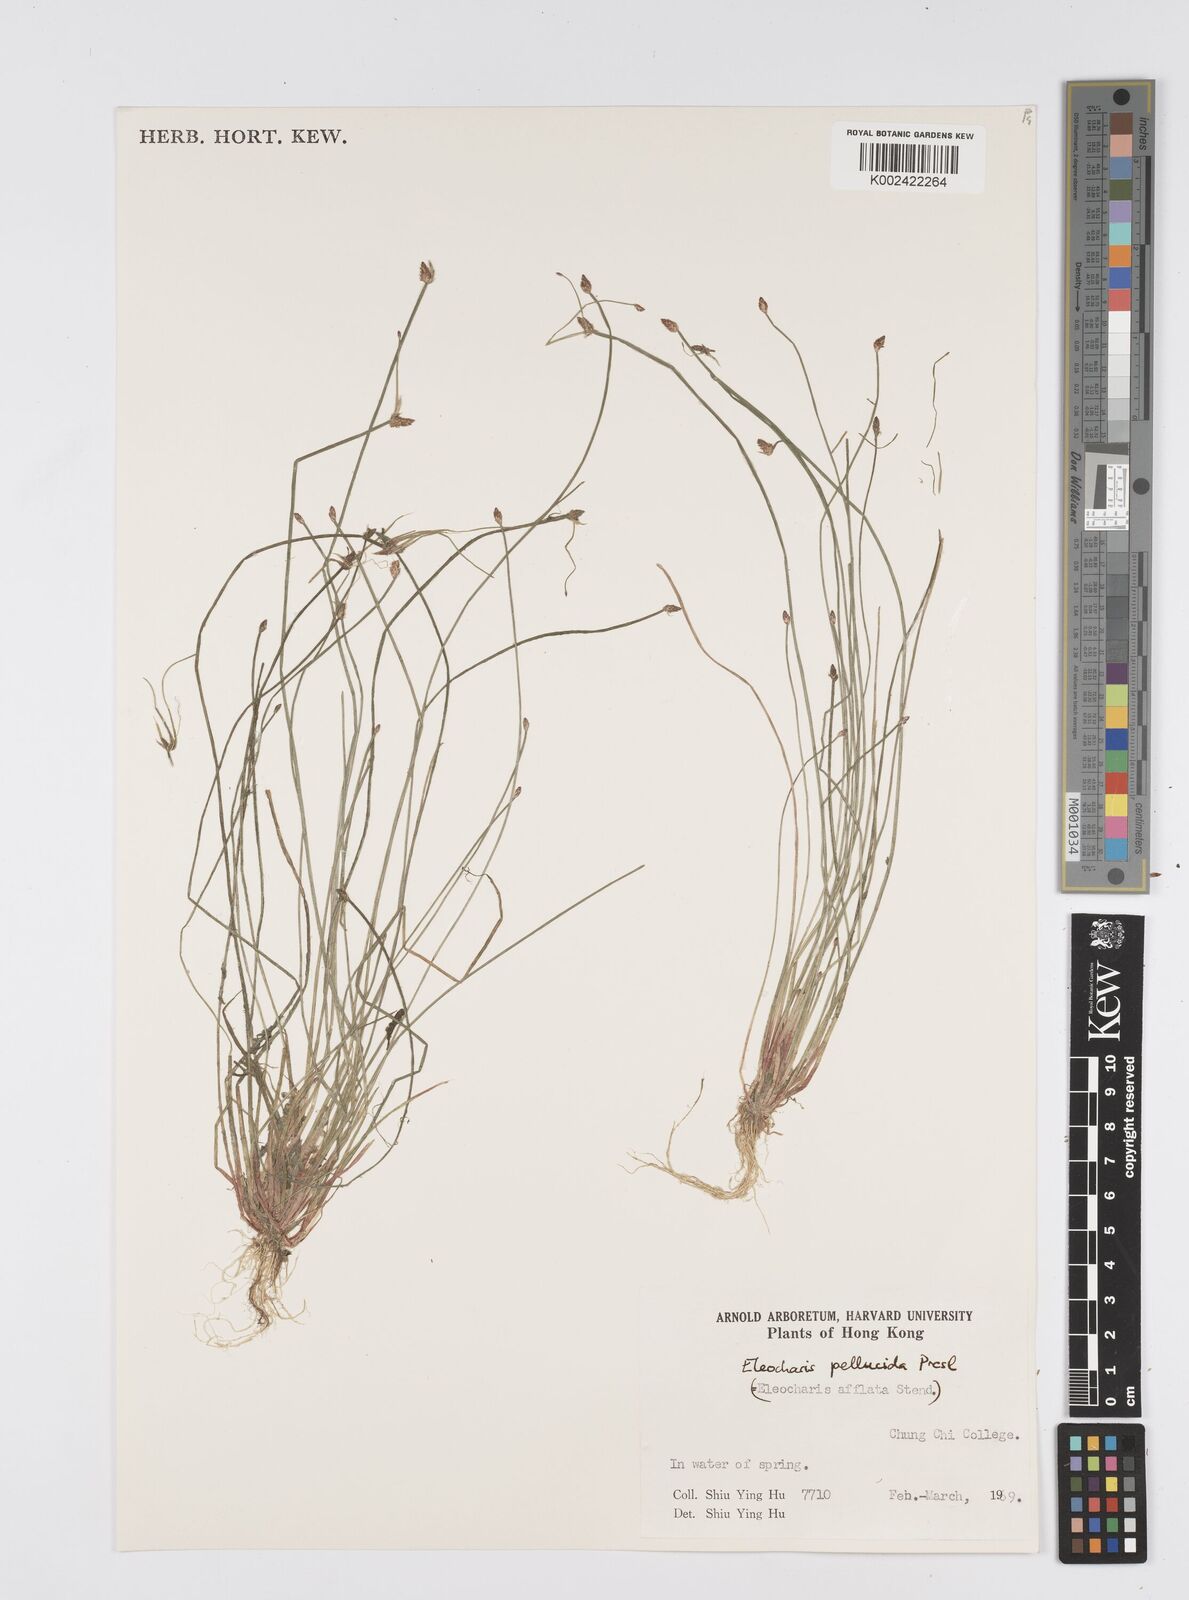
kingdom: Plantae
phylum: Tracheophyta
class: Liliopsida
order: Poales
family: Cyperaceae
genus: Eleocharis
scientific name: Eleocharis pellucida
